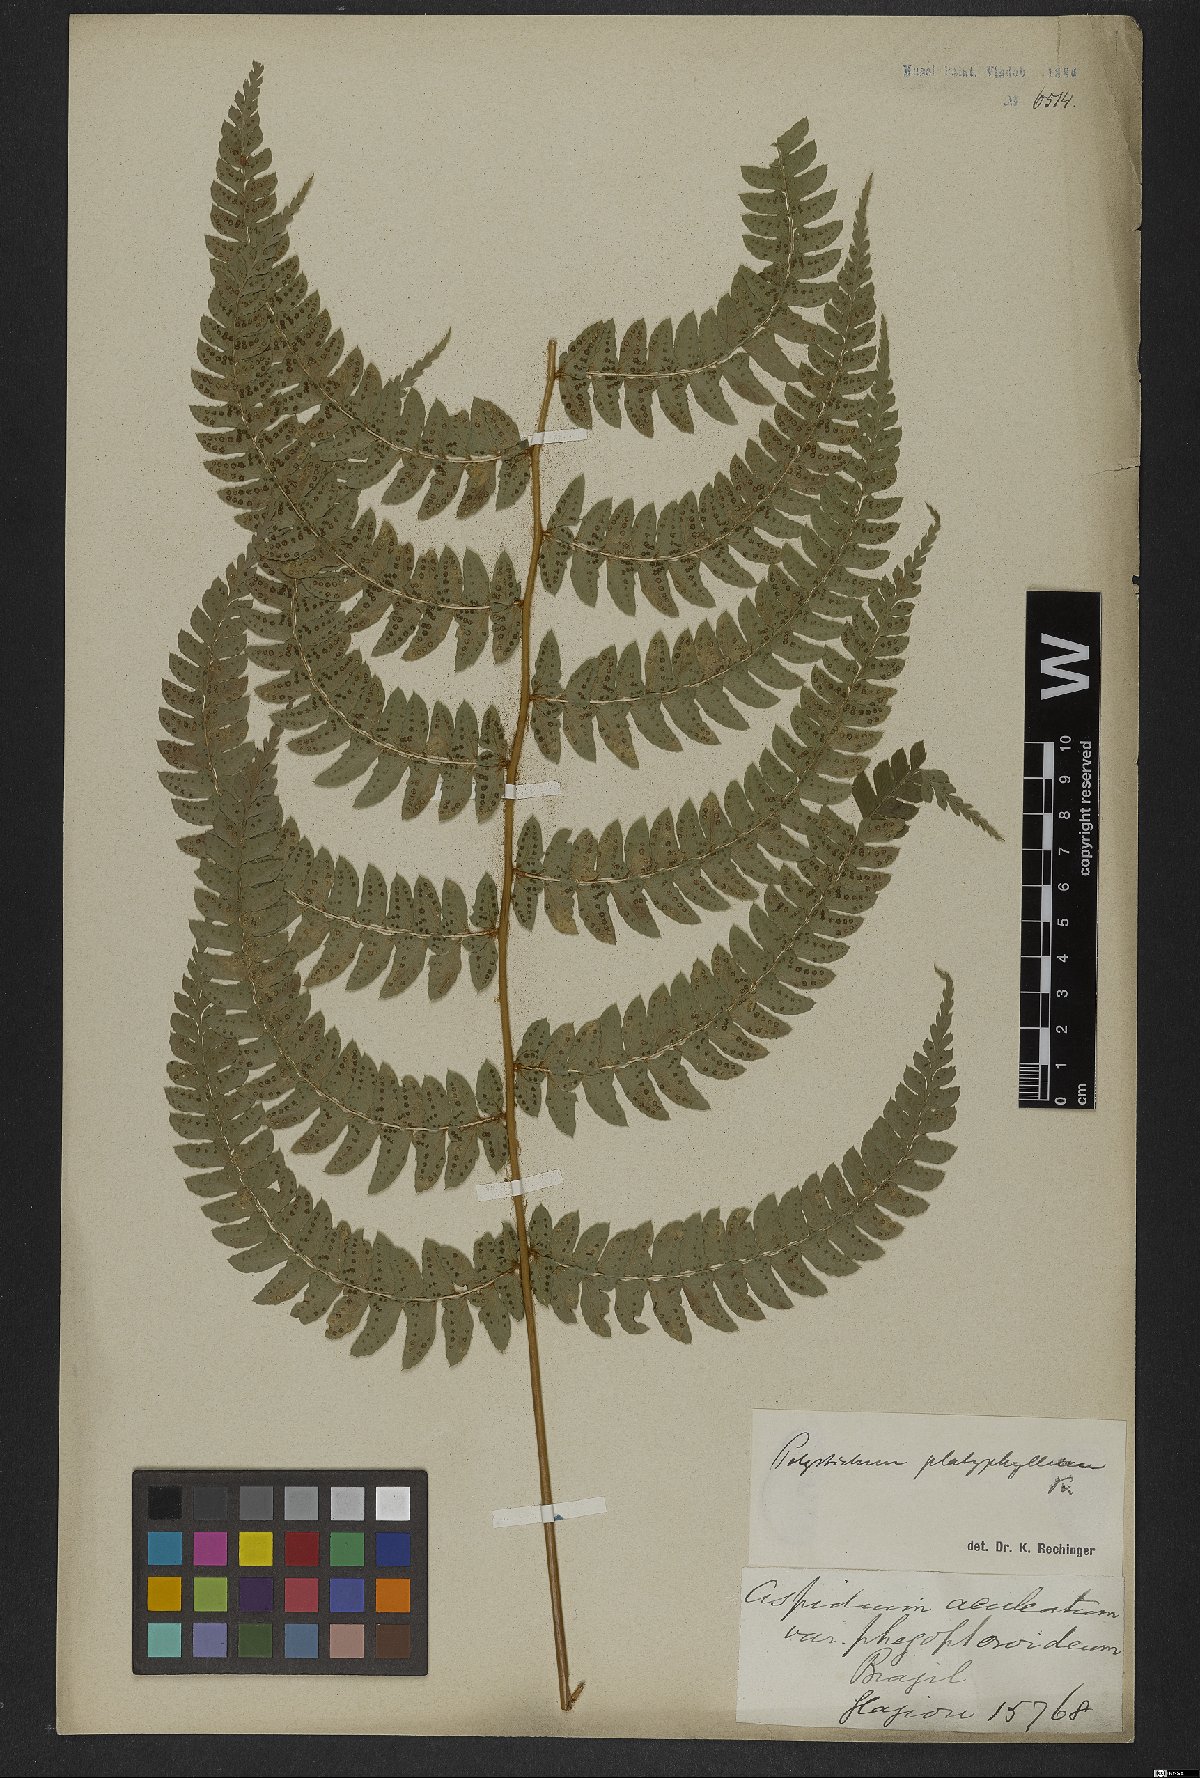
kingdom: Plantae
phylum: Tracheophyta
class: Polypodiopsida
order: Polypodiales
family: Dryopteridaceae
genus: Polystichum
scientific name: Polystichum aculeatum
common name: Hard shield-fern
